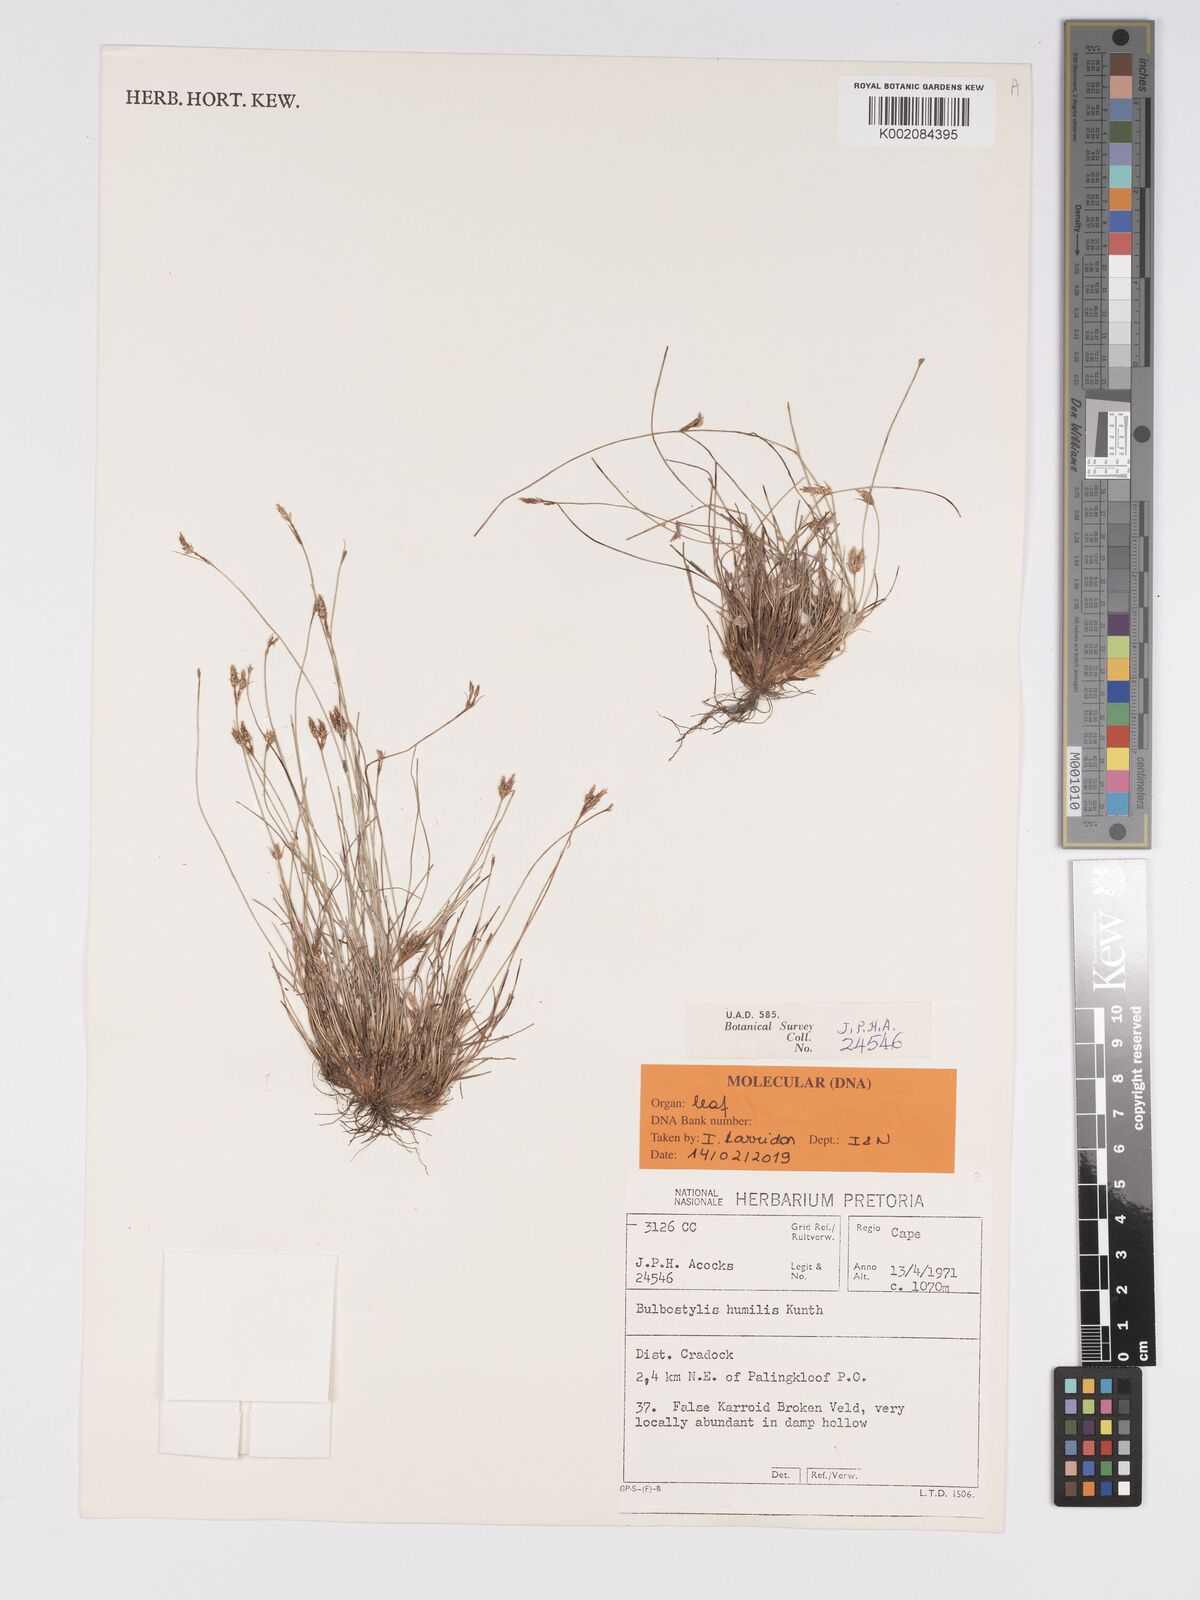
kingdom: Plantae
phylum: Tracheophyta
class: Liliopsida
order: Poales
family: Cyperaceae
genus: Bulbostylis
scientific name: Bulbostylis humilis
